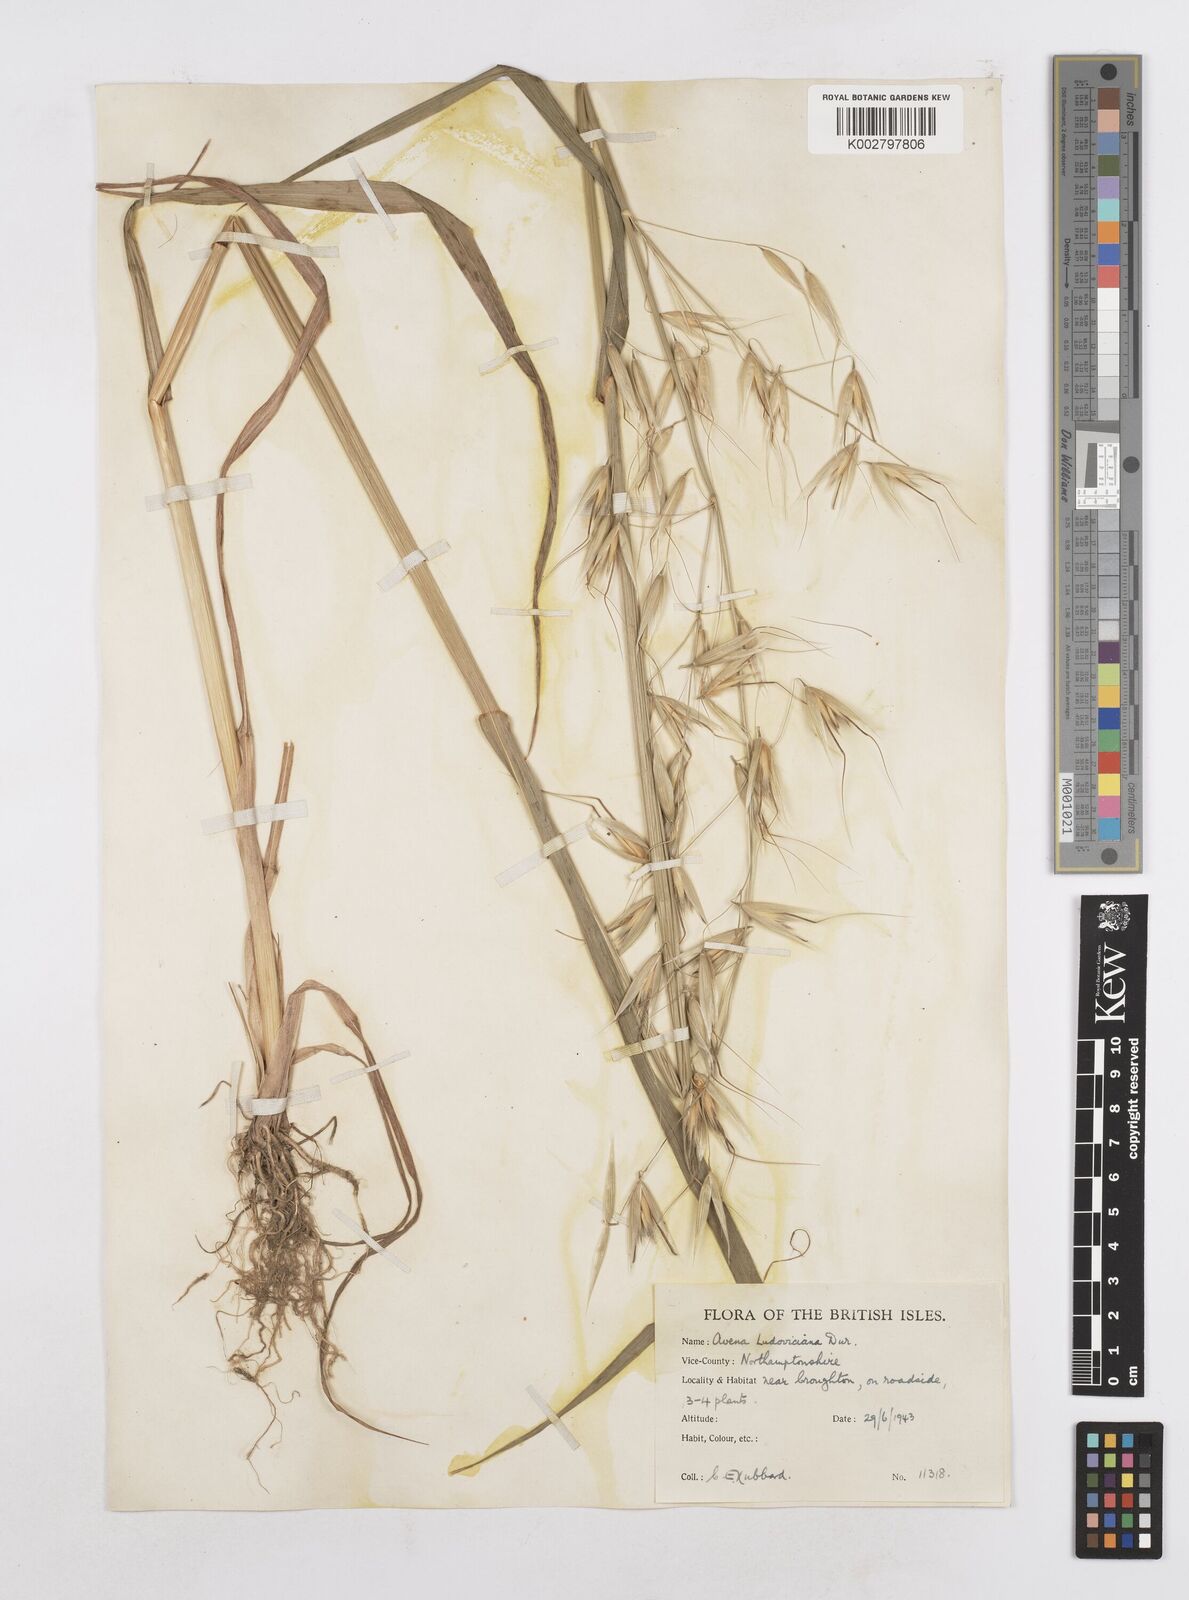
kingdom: Plantae
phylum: Tracheophyta
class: Liliopsida
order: Poales
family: Poaceae
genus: Avena
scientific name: Avena sterilis
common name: Animated oat
